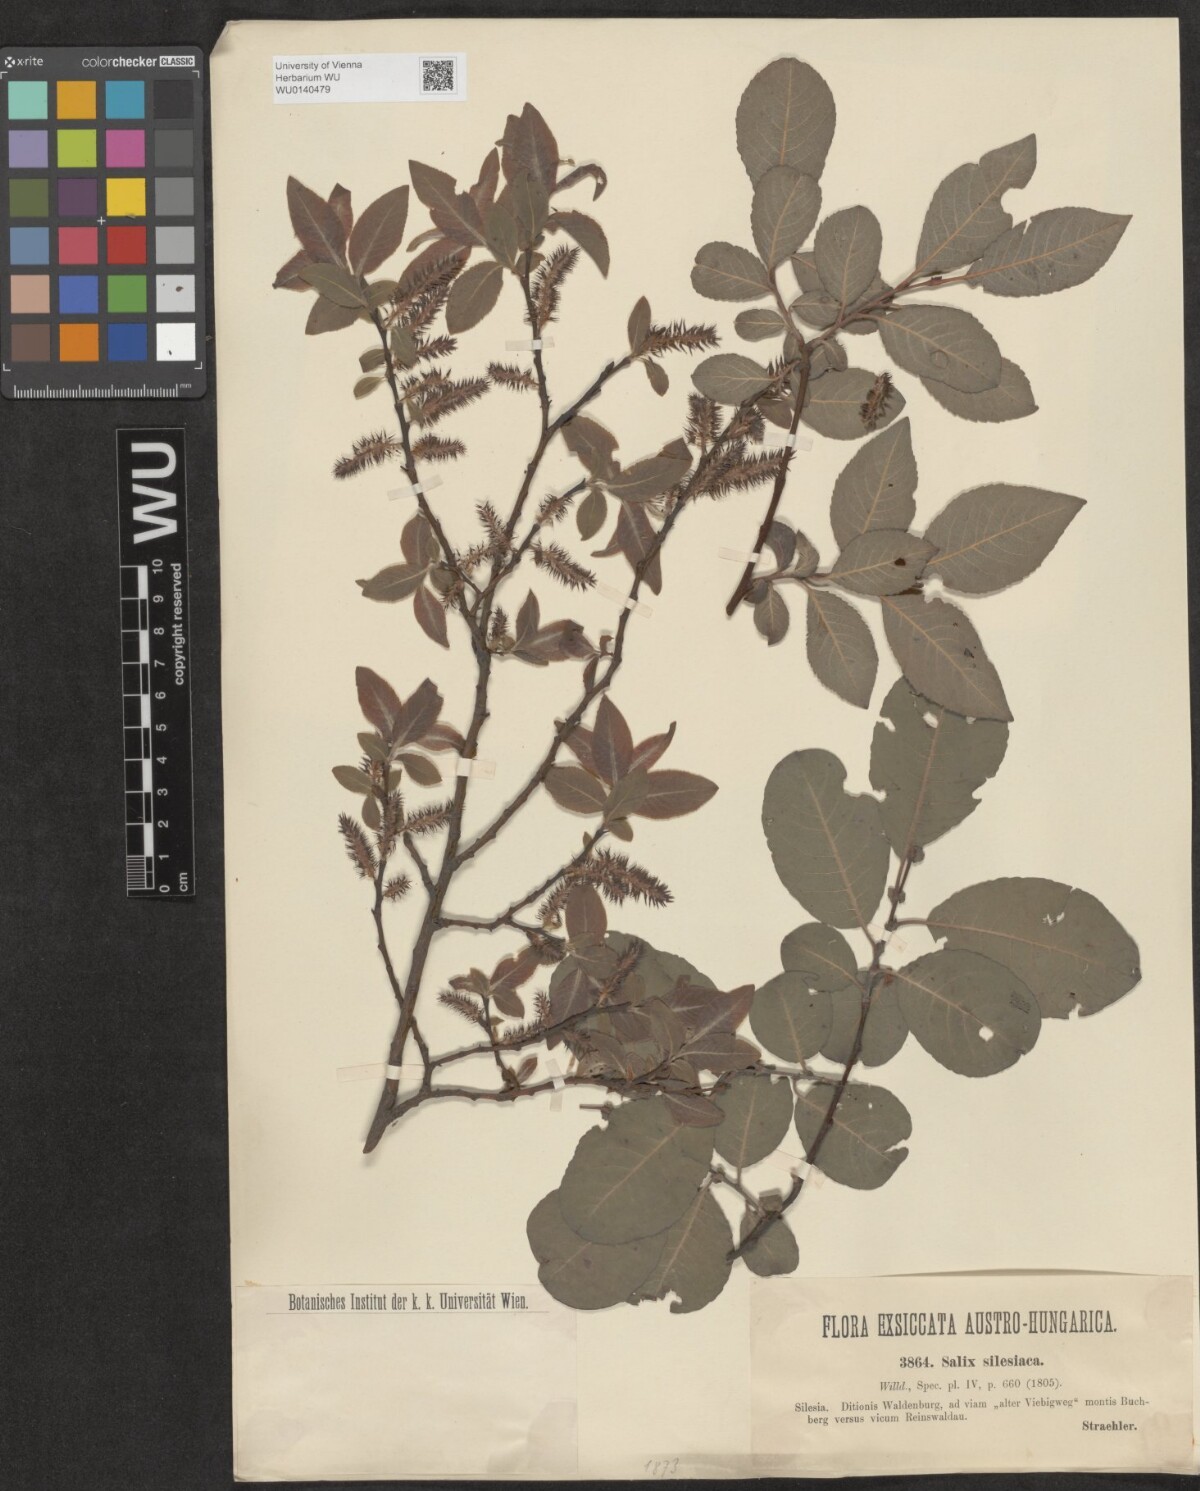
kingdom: Plantae
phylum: Tracheophyta
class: Magnoliopsida
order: Malpighiales
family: Salicaceae
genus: Salix
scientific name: Salix silesiaca
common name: Silesian willow
